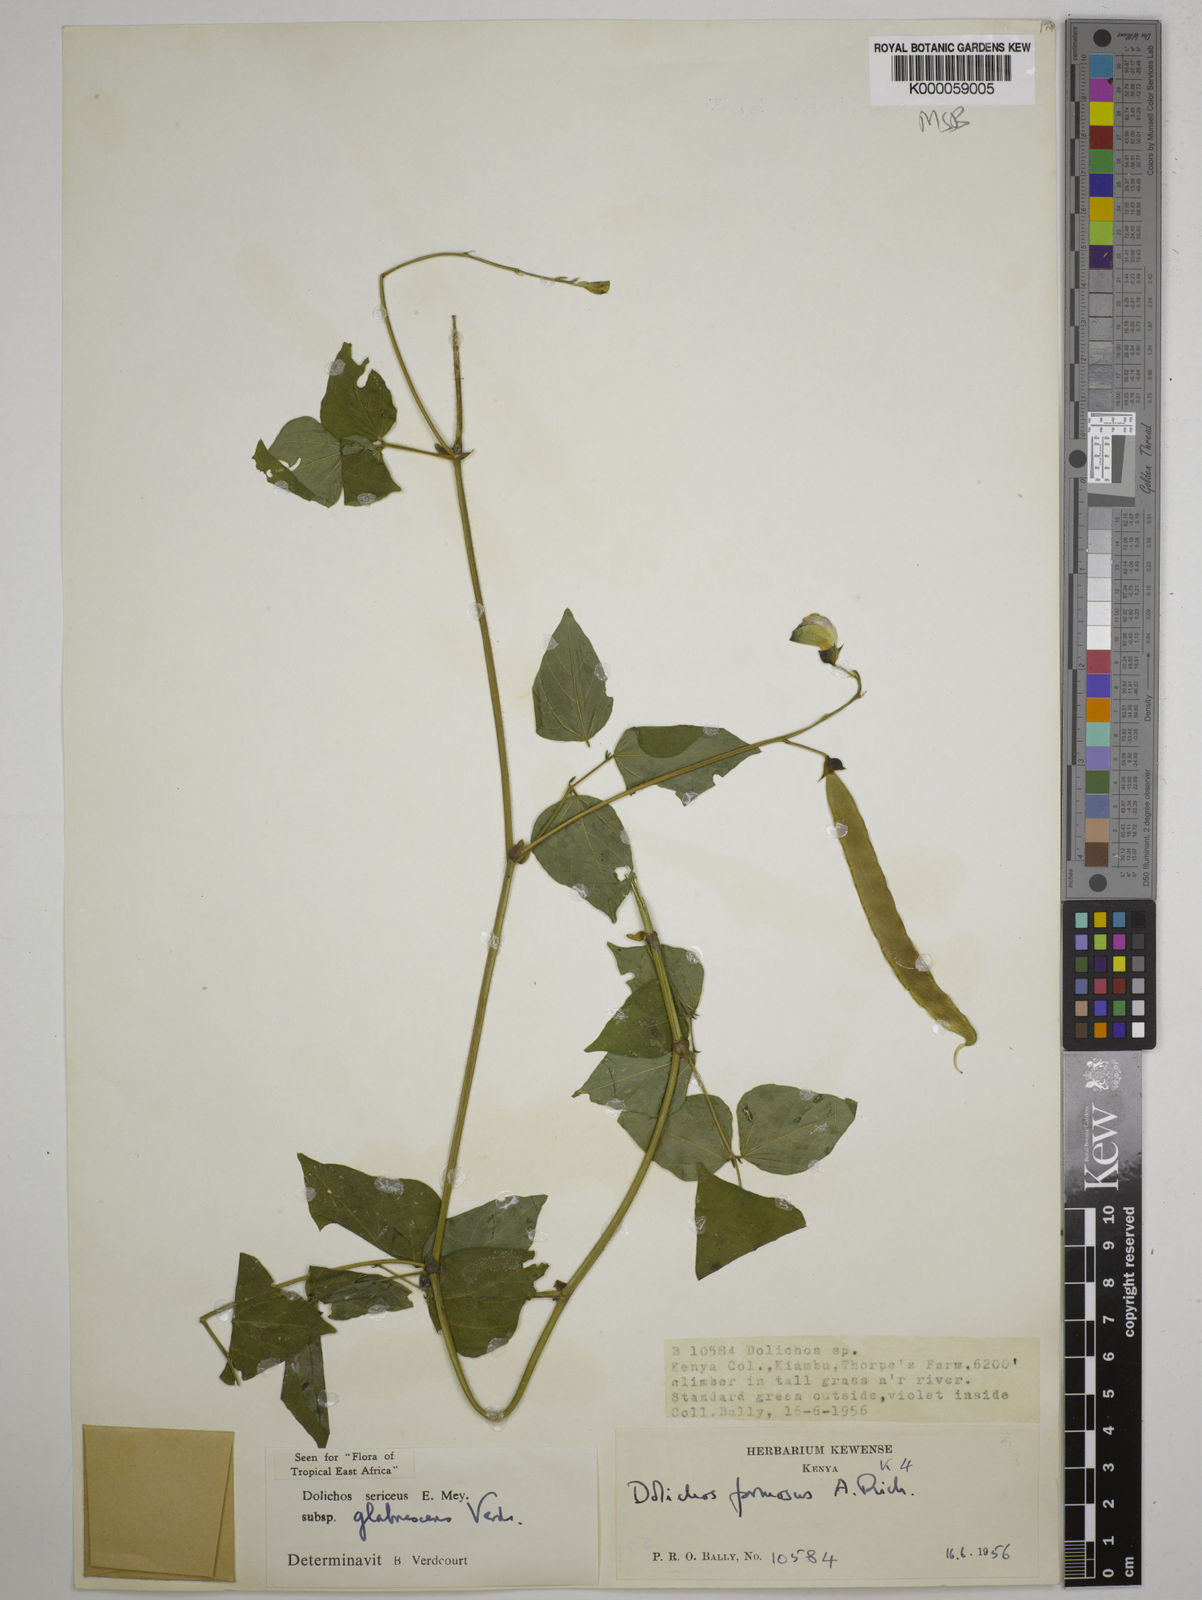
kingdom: Plantae
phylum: Tracheophyta
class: Magnoliopsida
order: Fabales
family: Fabaceae
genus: Dolichos
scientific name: Dolichos sericeus
